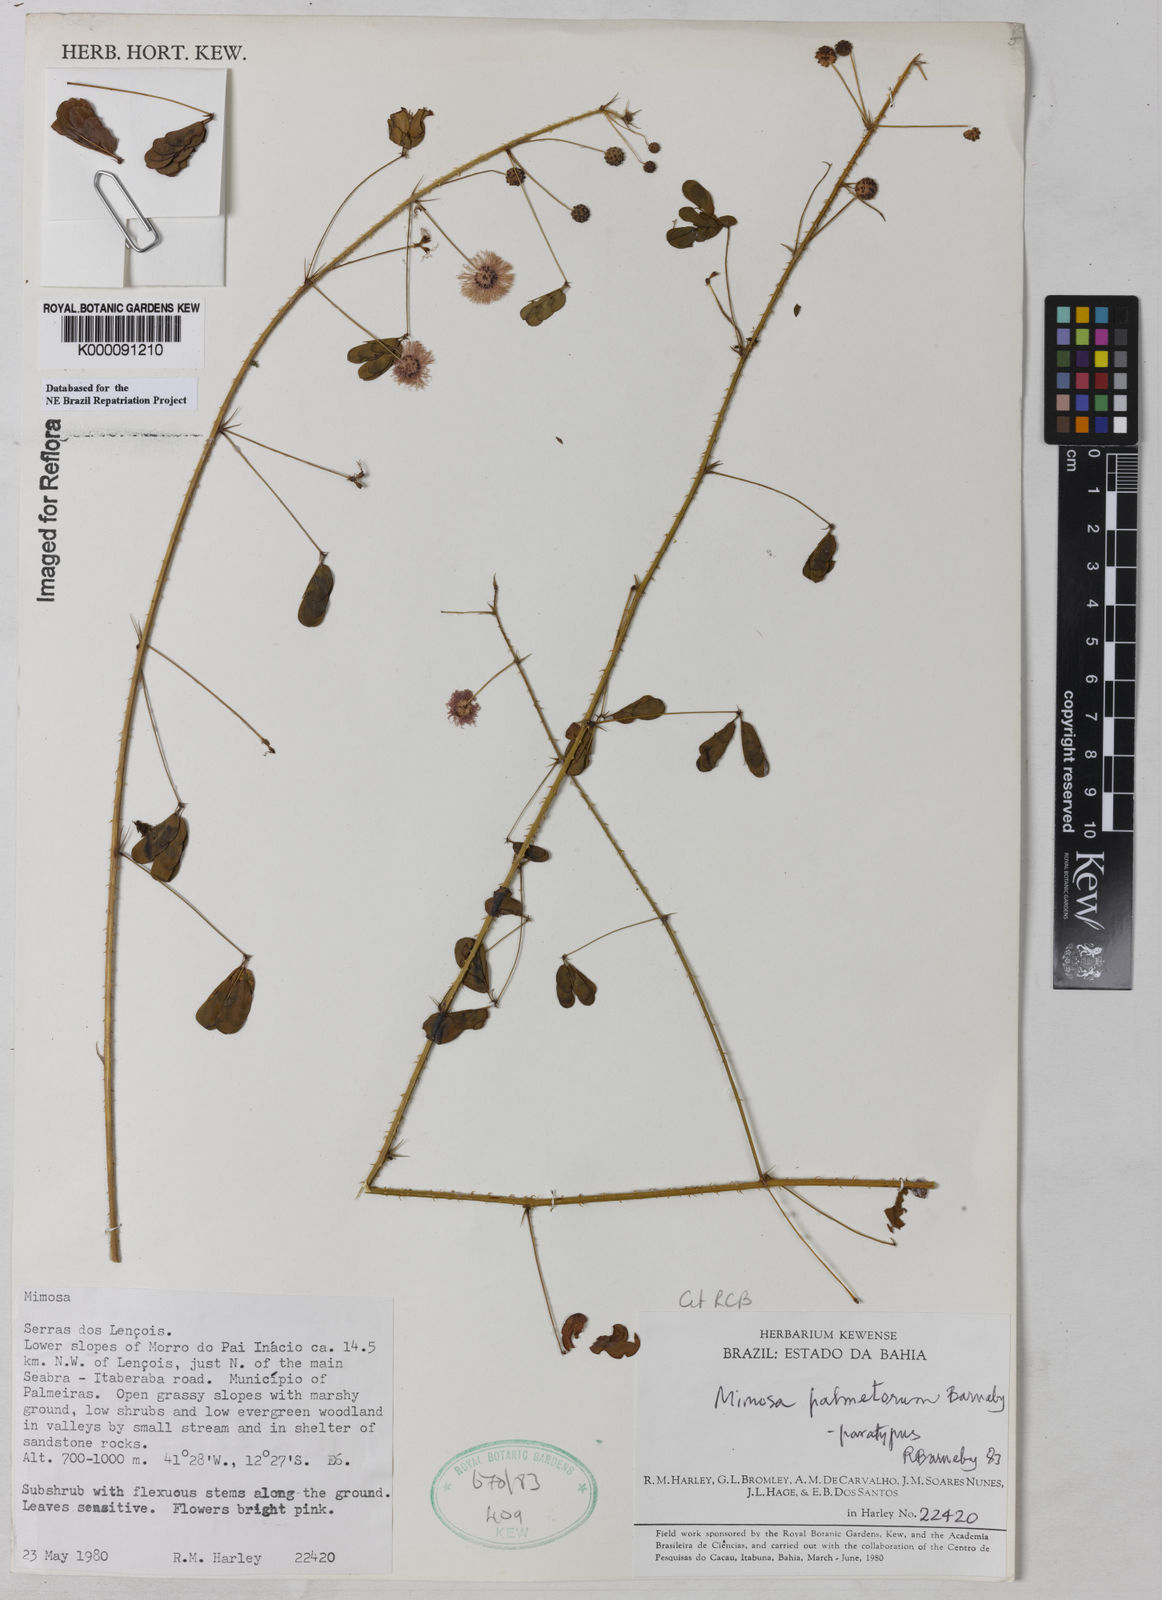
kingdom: Plantae
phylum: Tracheophyta
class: Magnoliopsida
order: Fabales
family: Fabaceae
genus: Mimosa
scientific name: Mimosa palmetorum
